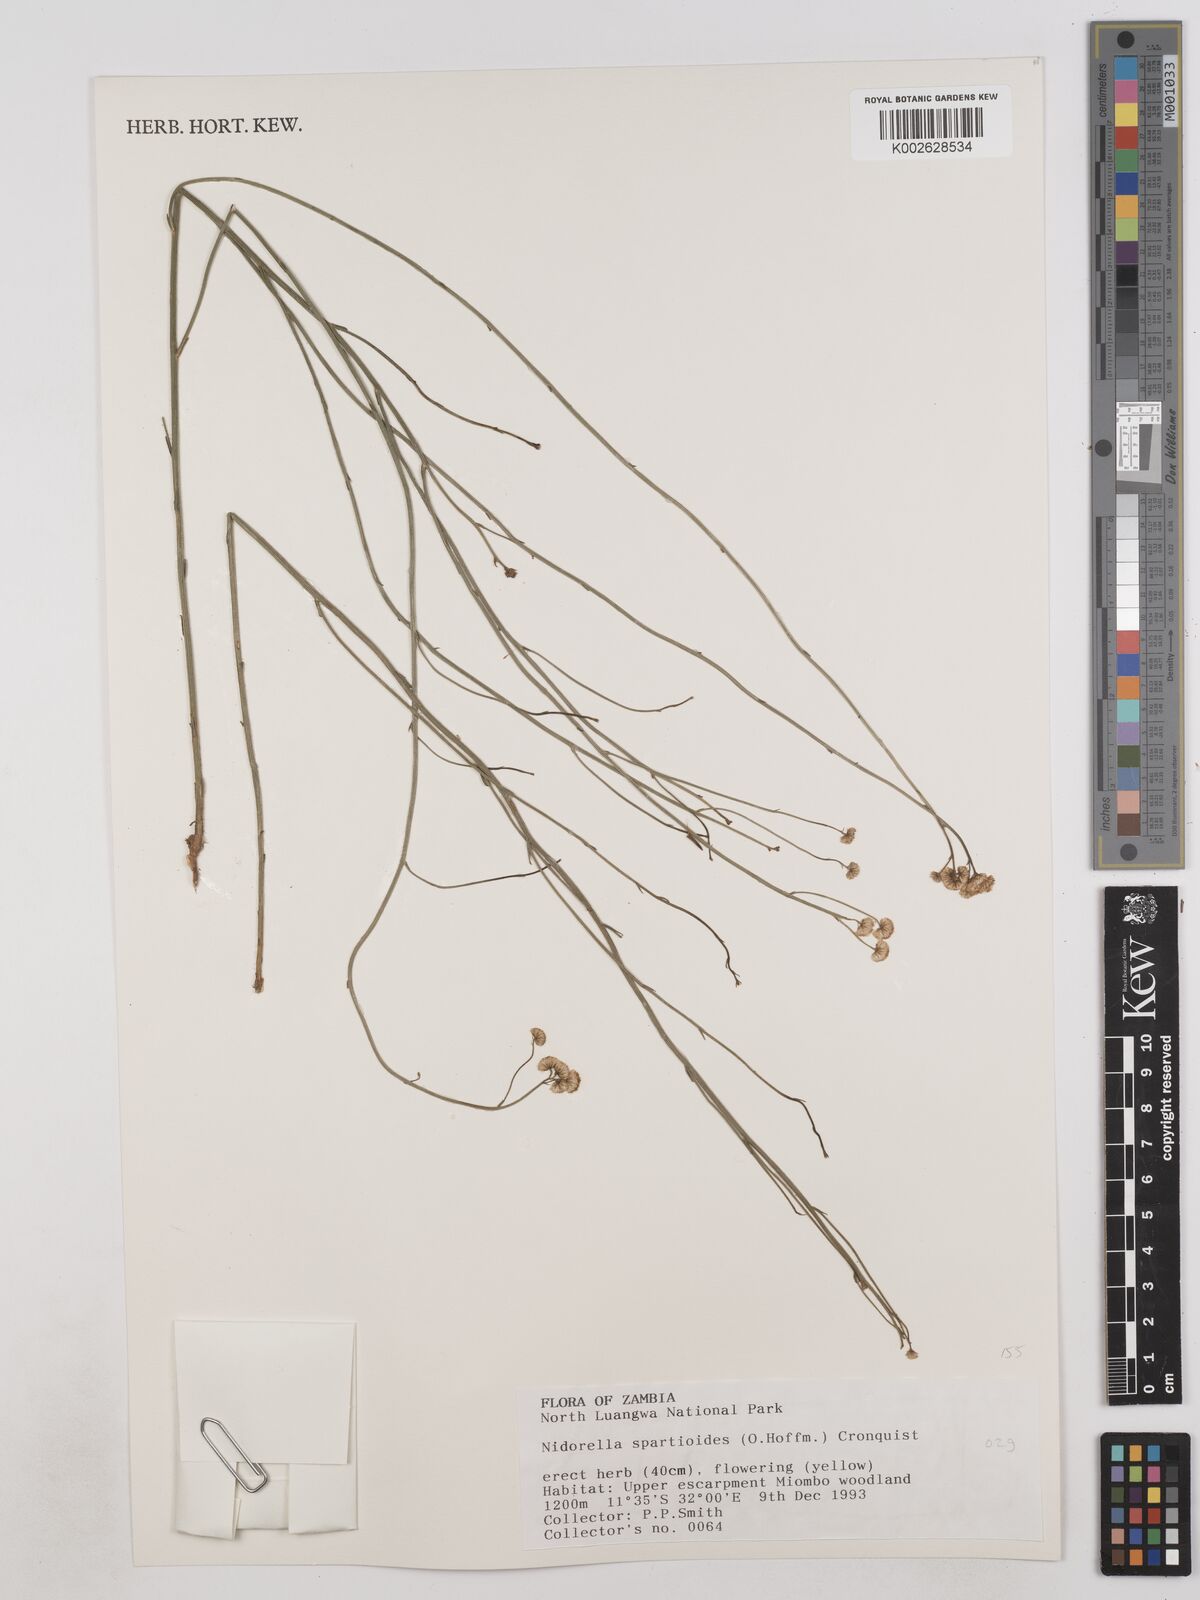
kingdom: Plantae
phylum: Tracheophyta
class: Magnoliopsida
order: Asterales
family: Asteraceae
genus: Nidorella
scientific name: Nidorella spartioides
